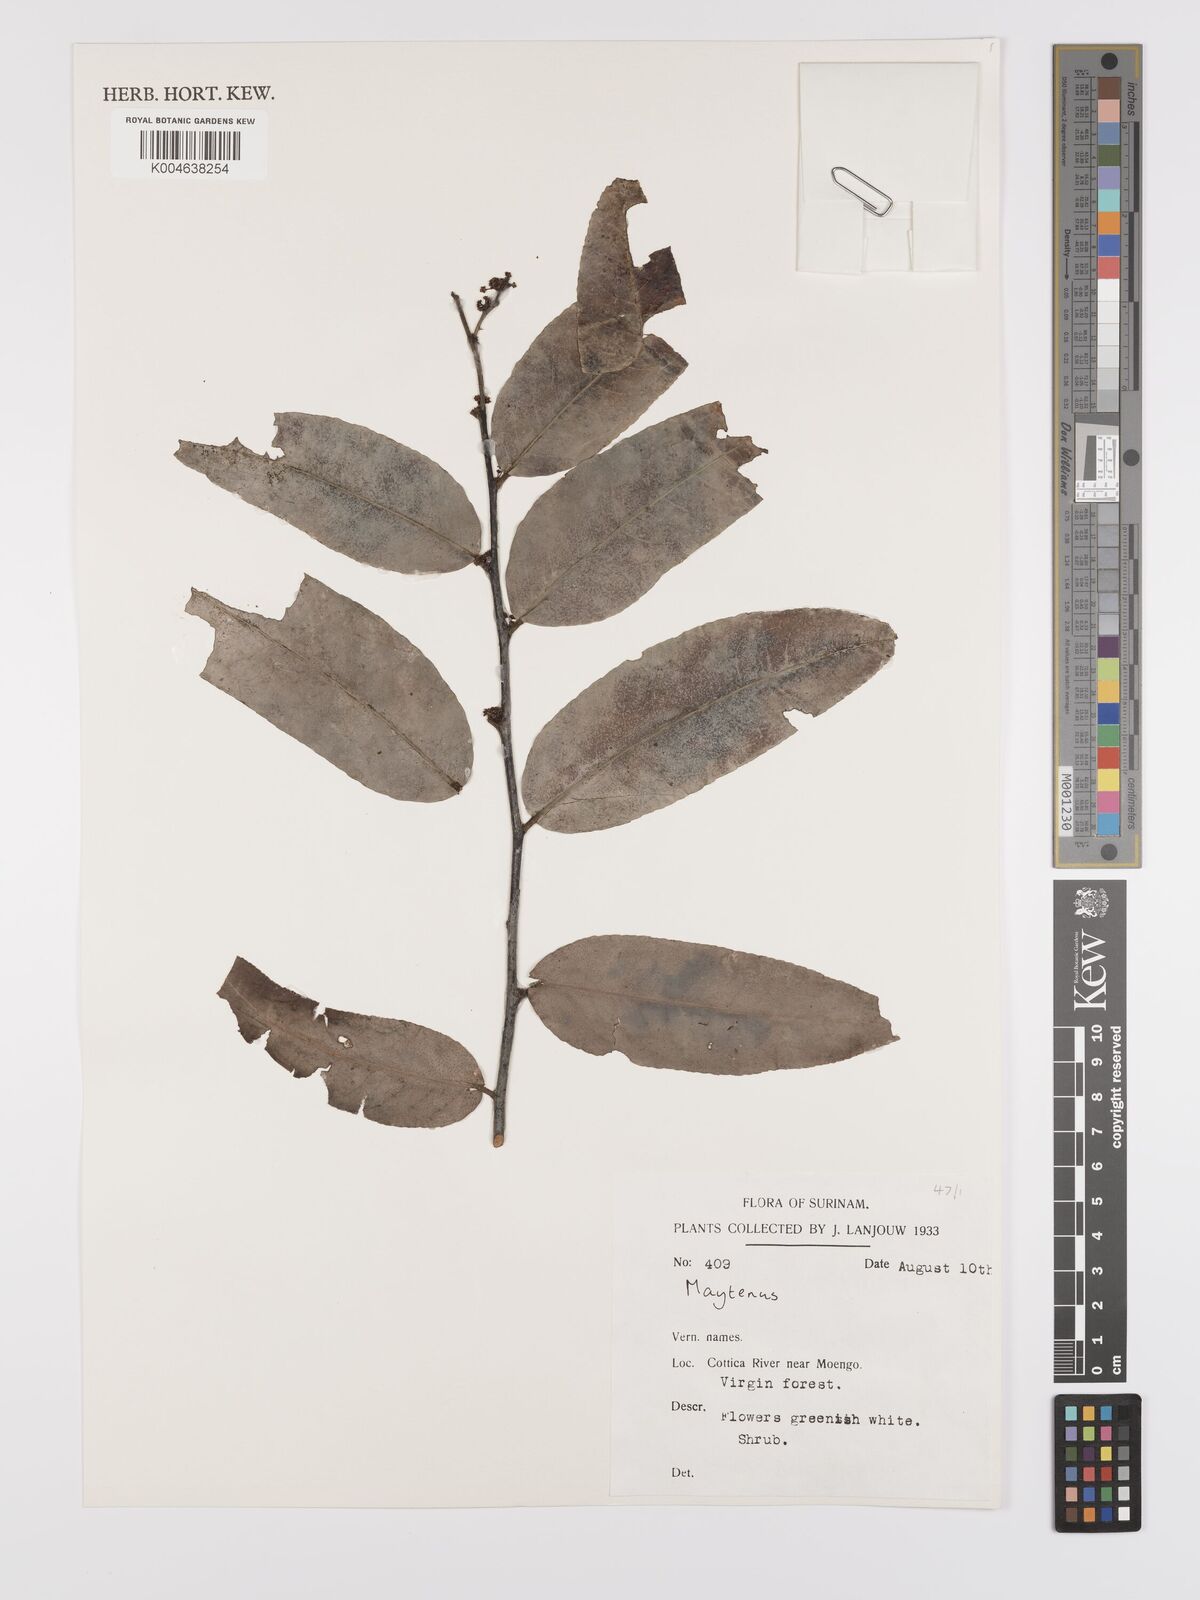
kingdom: Plantae
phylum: Tracheophyta
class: Magnoliopsida
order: Celastrales
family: Celastraceae
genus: Maytenus
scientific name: Maytenus
